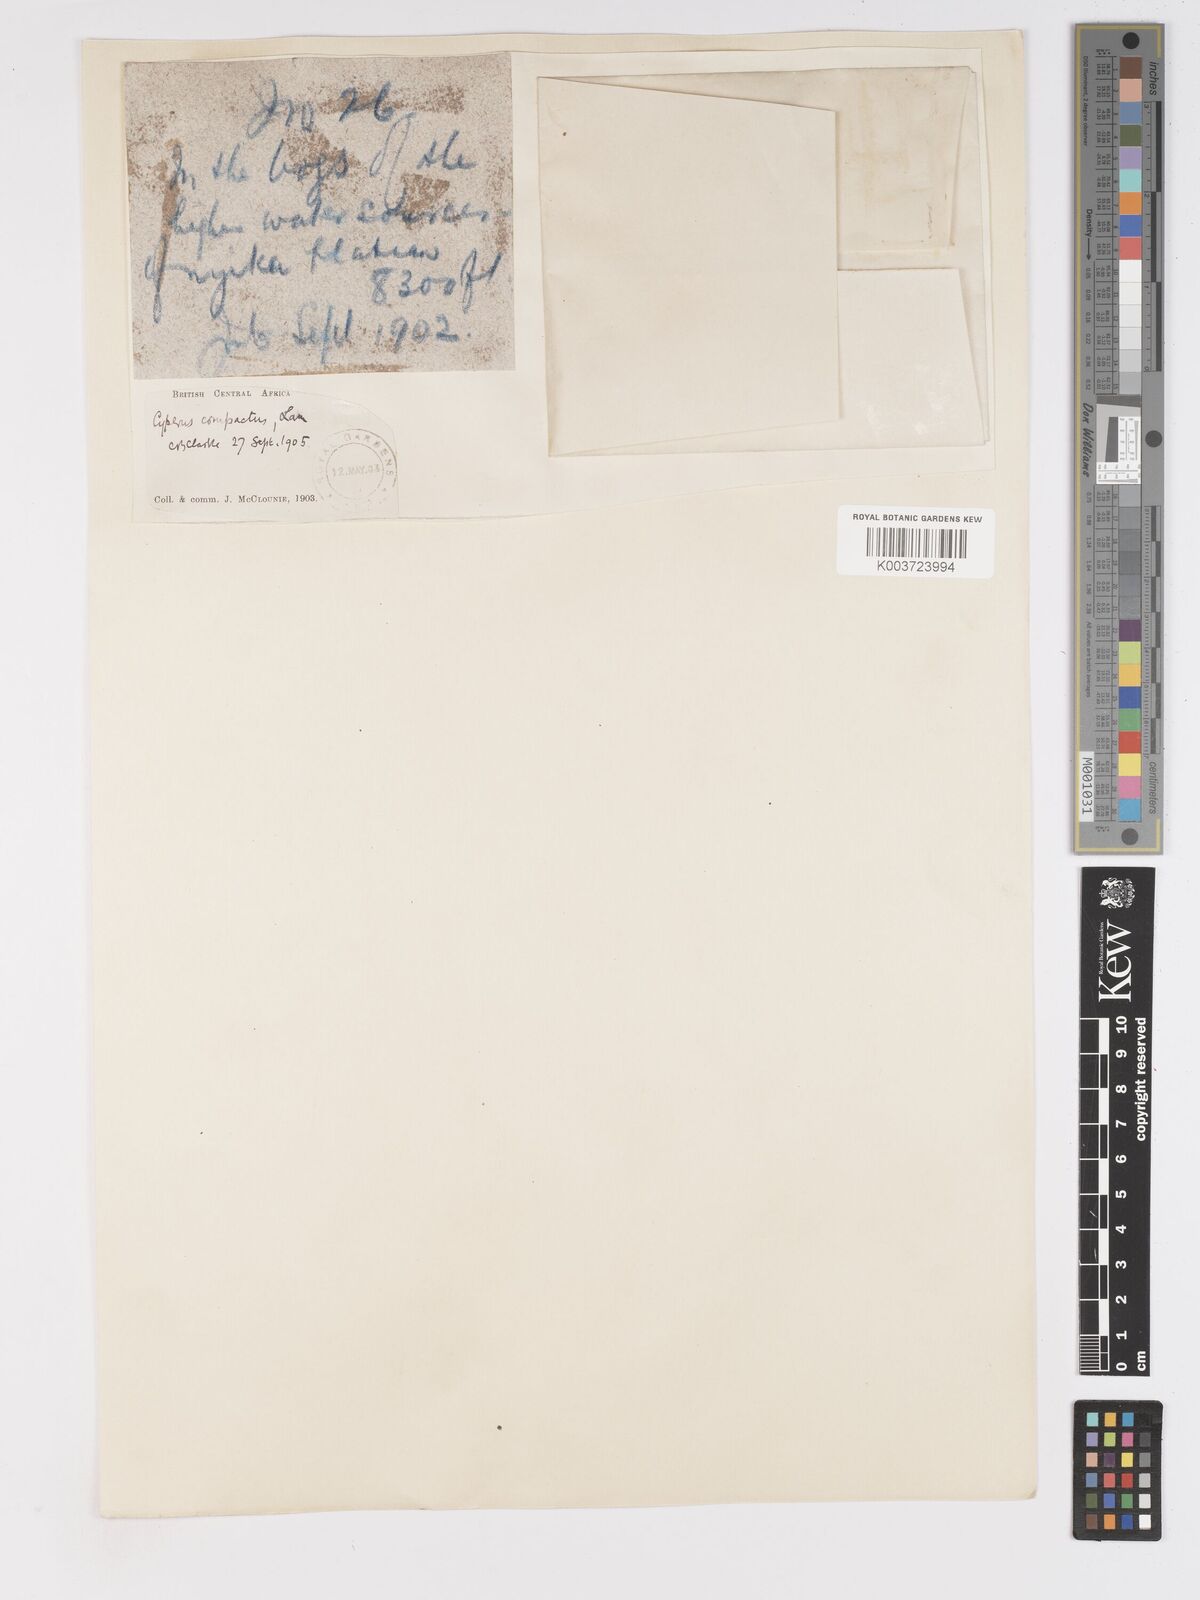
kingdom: Plantae
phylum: Tracheophyta
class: Liliopsida
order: Poales
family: Cyperaceae
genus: Cyperus
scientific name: Cyperus niveus
